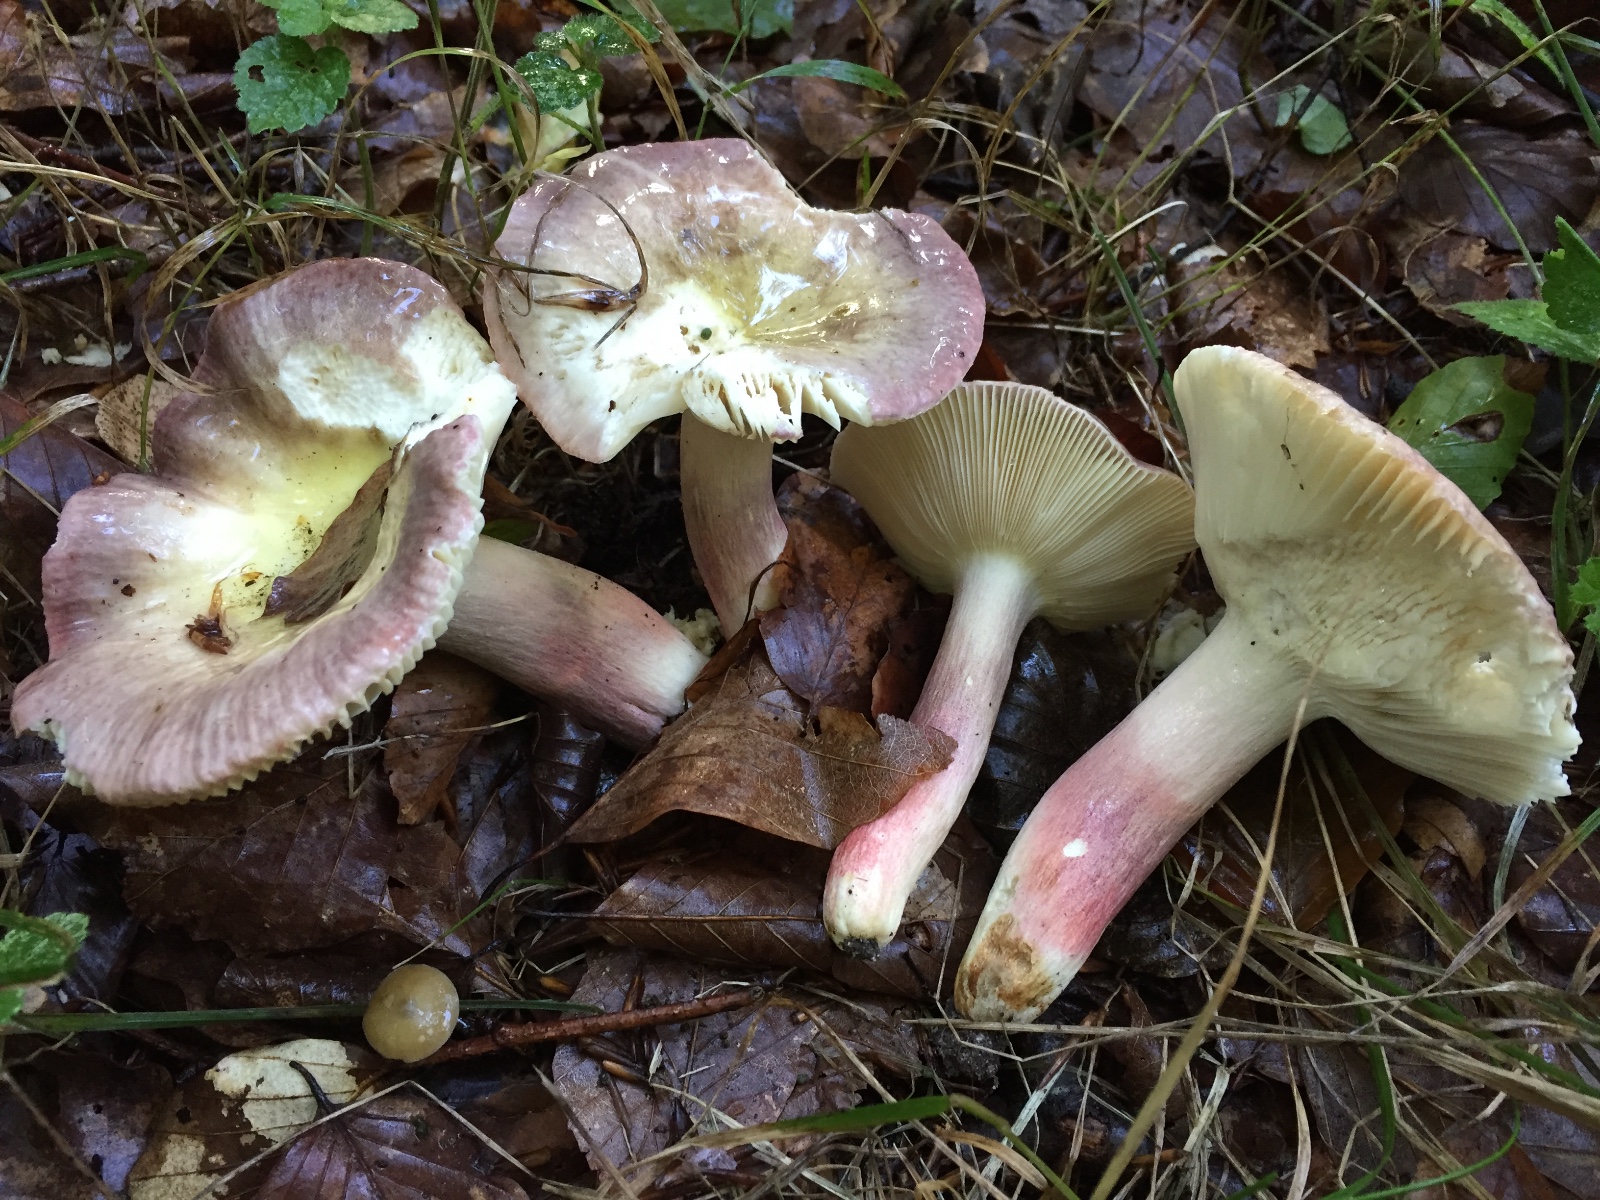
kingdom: Fungi
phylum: Basidiomycota
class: Agaricomycetes
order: Russulales
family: Russulaceae
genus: Russula
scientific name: Russula violeipes
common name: ferskengul skørhat
